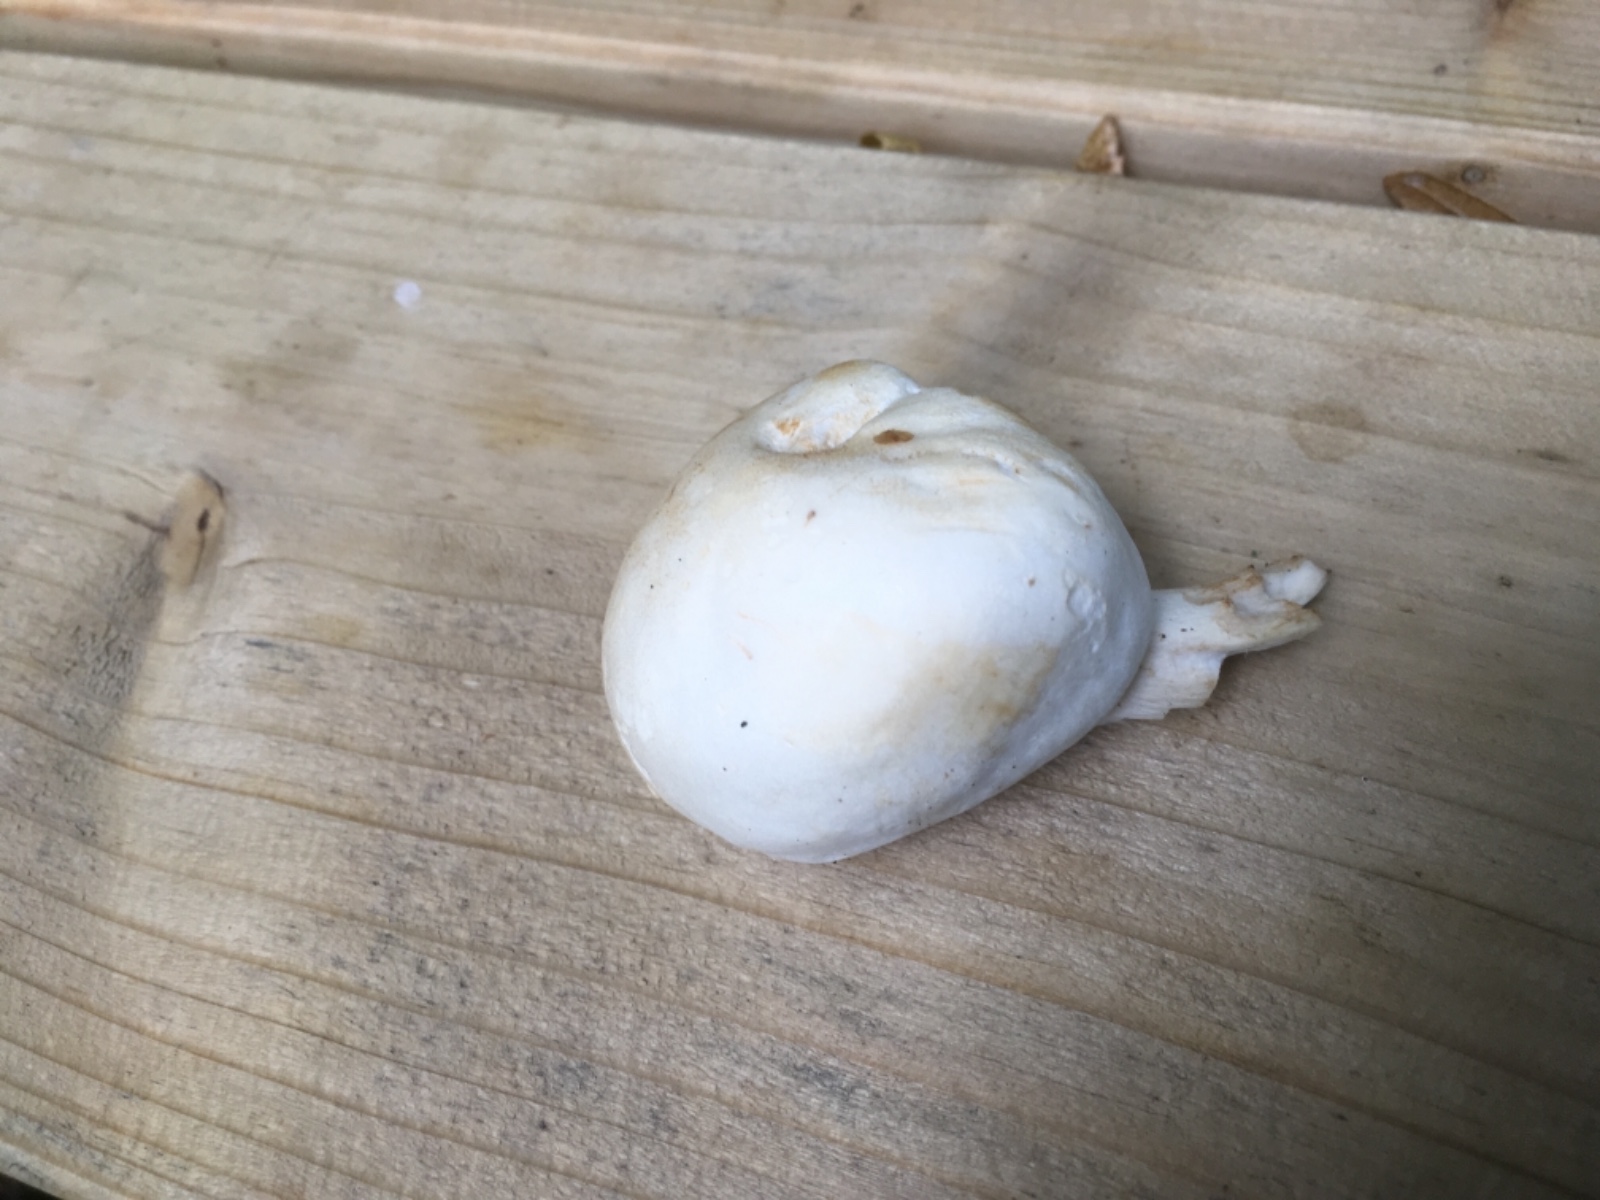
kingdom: Fungi
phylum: Basidiomycota
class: Agaricomycetes
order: Agaricales
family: Hygrophoraceae
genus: Hygrophorus
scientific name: Hygrophorus discoxanthus
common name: ildelugtende sneglehat
